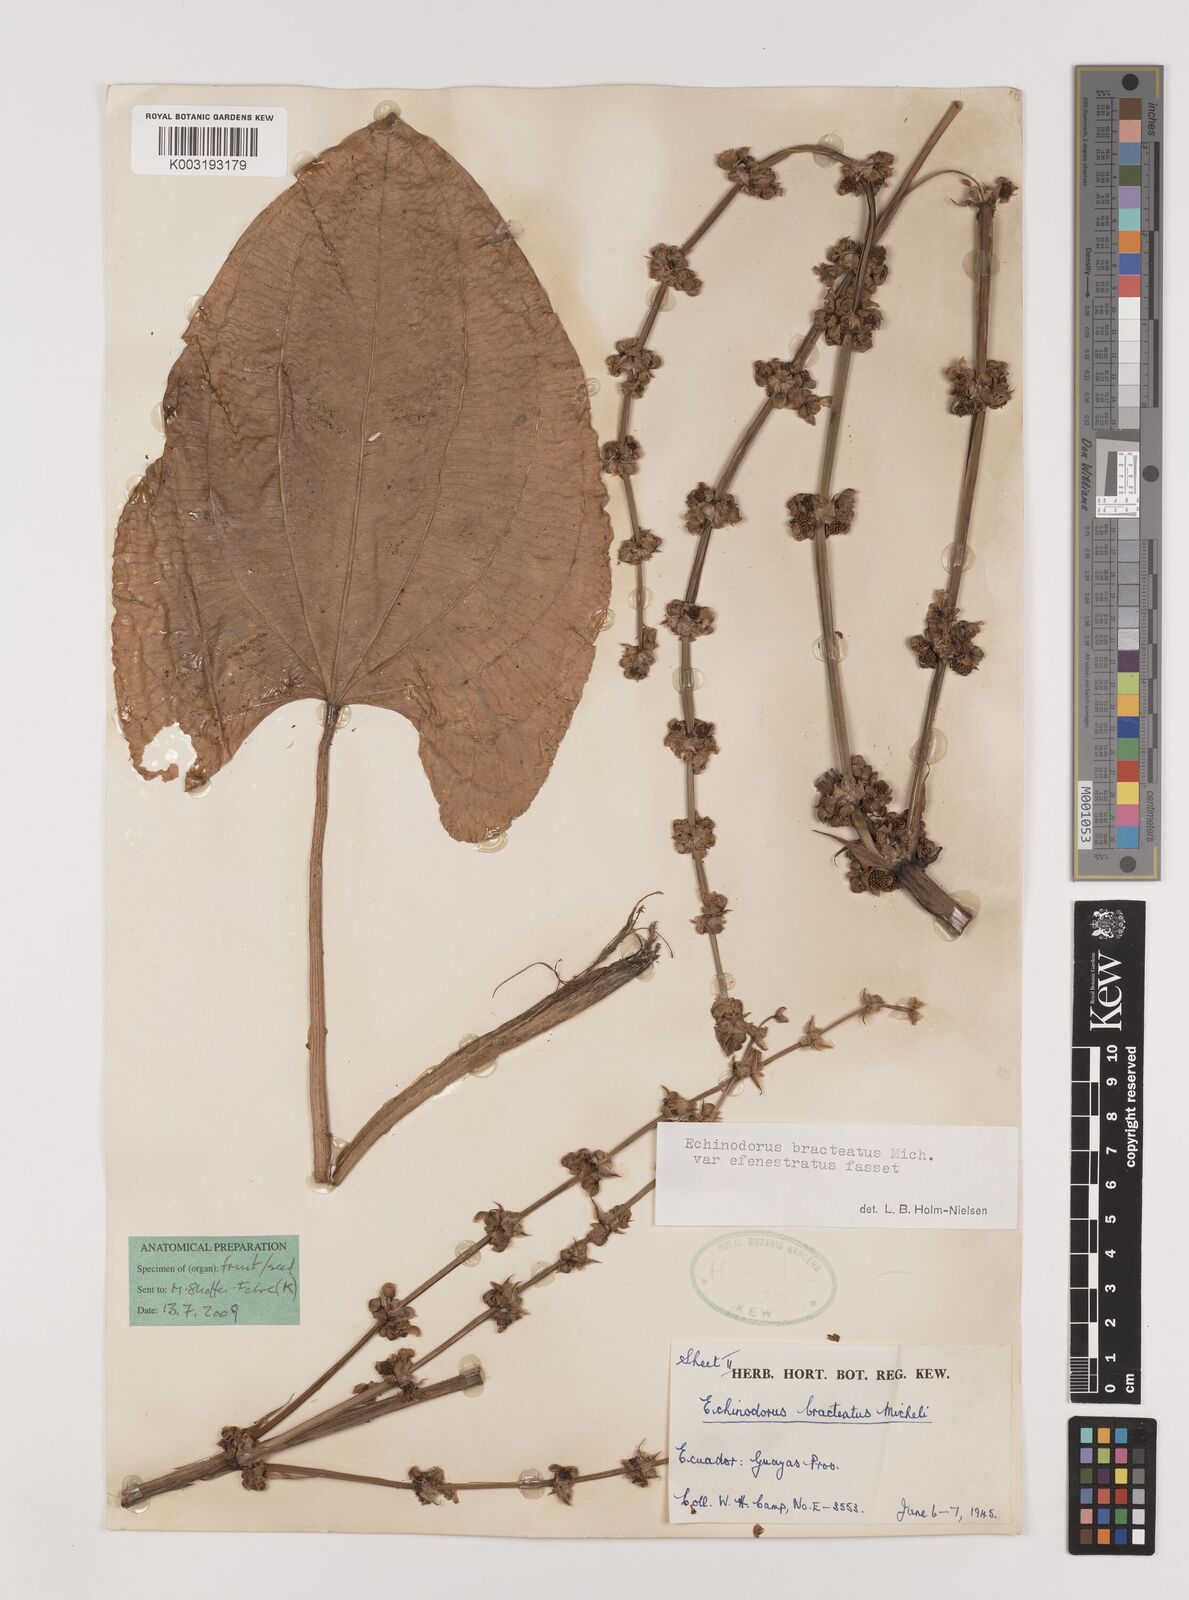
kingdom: Plantae
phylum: Tracheophyta
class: Liliopsida
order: Alismatales
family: Alismataceae
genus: Aquarius
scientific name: Aquarius bracteatus
